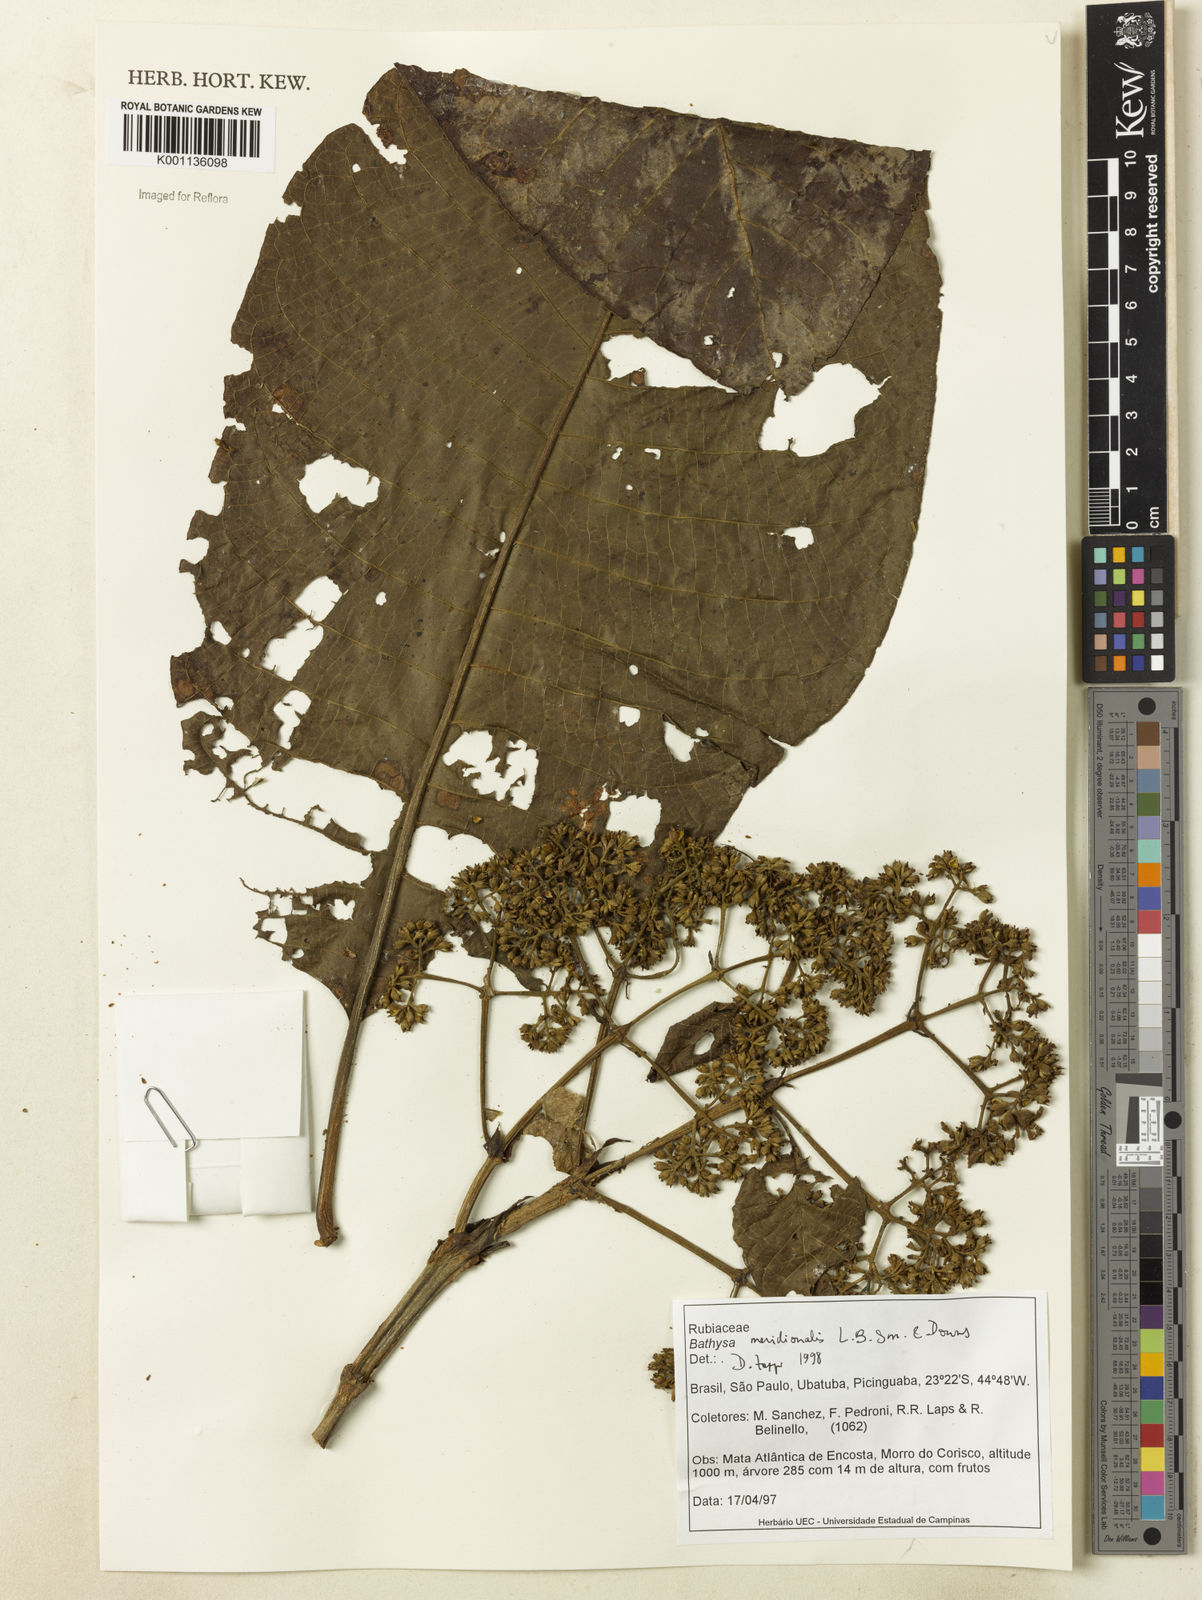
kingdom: Plantae
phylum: Tracheophyta
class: Magnoliopsida
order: Gentianales
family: Rubiaceae
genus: Bathysa
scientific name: Bathysa australis
